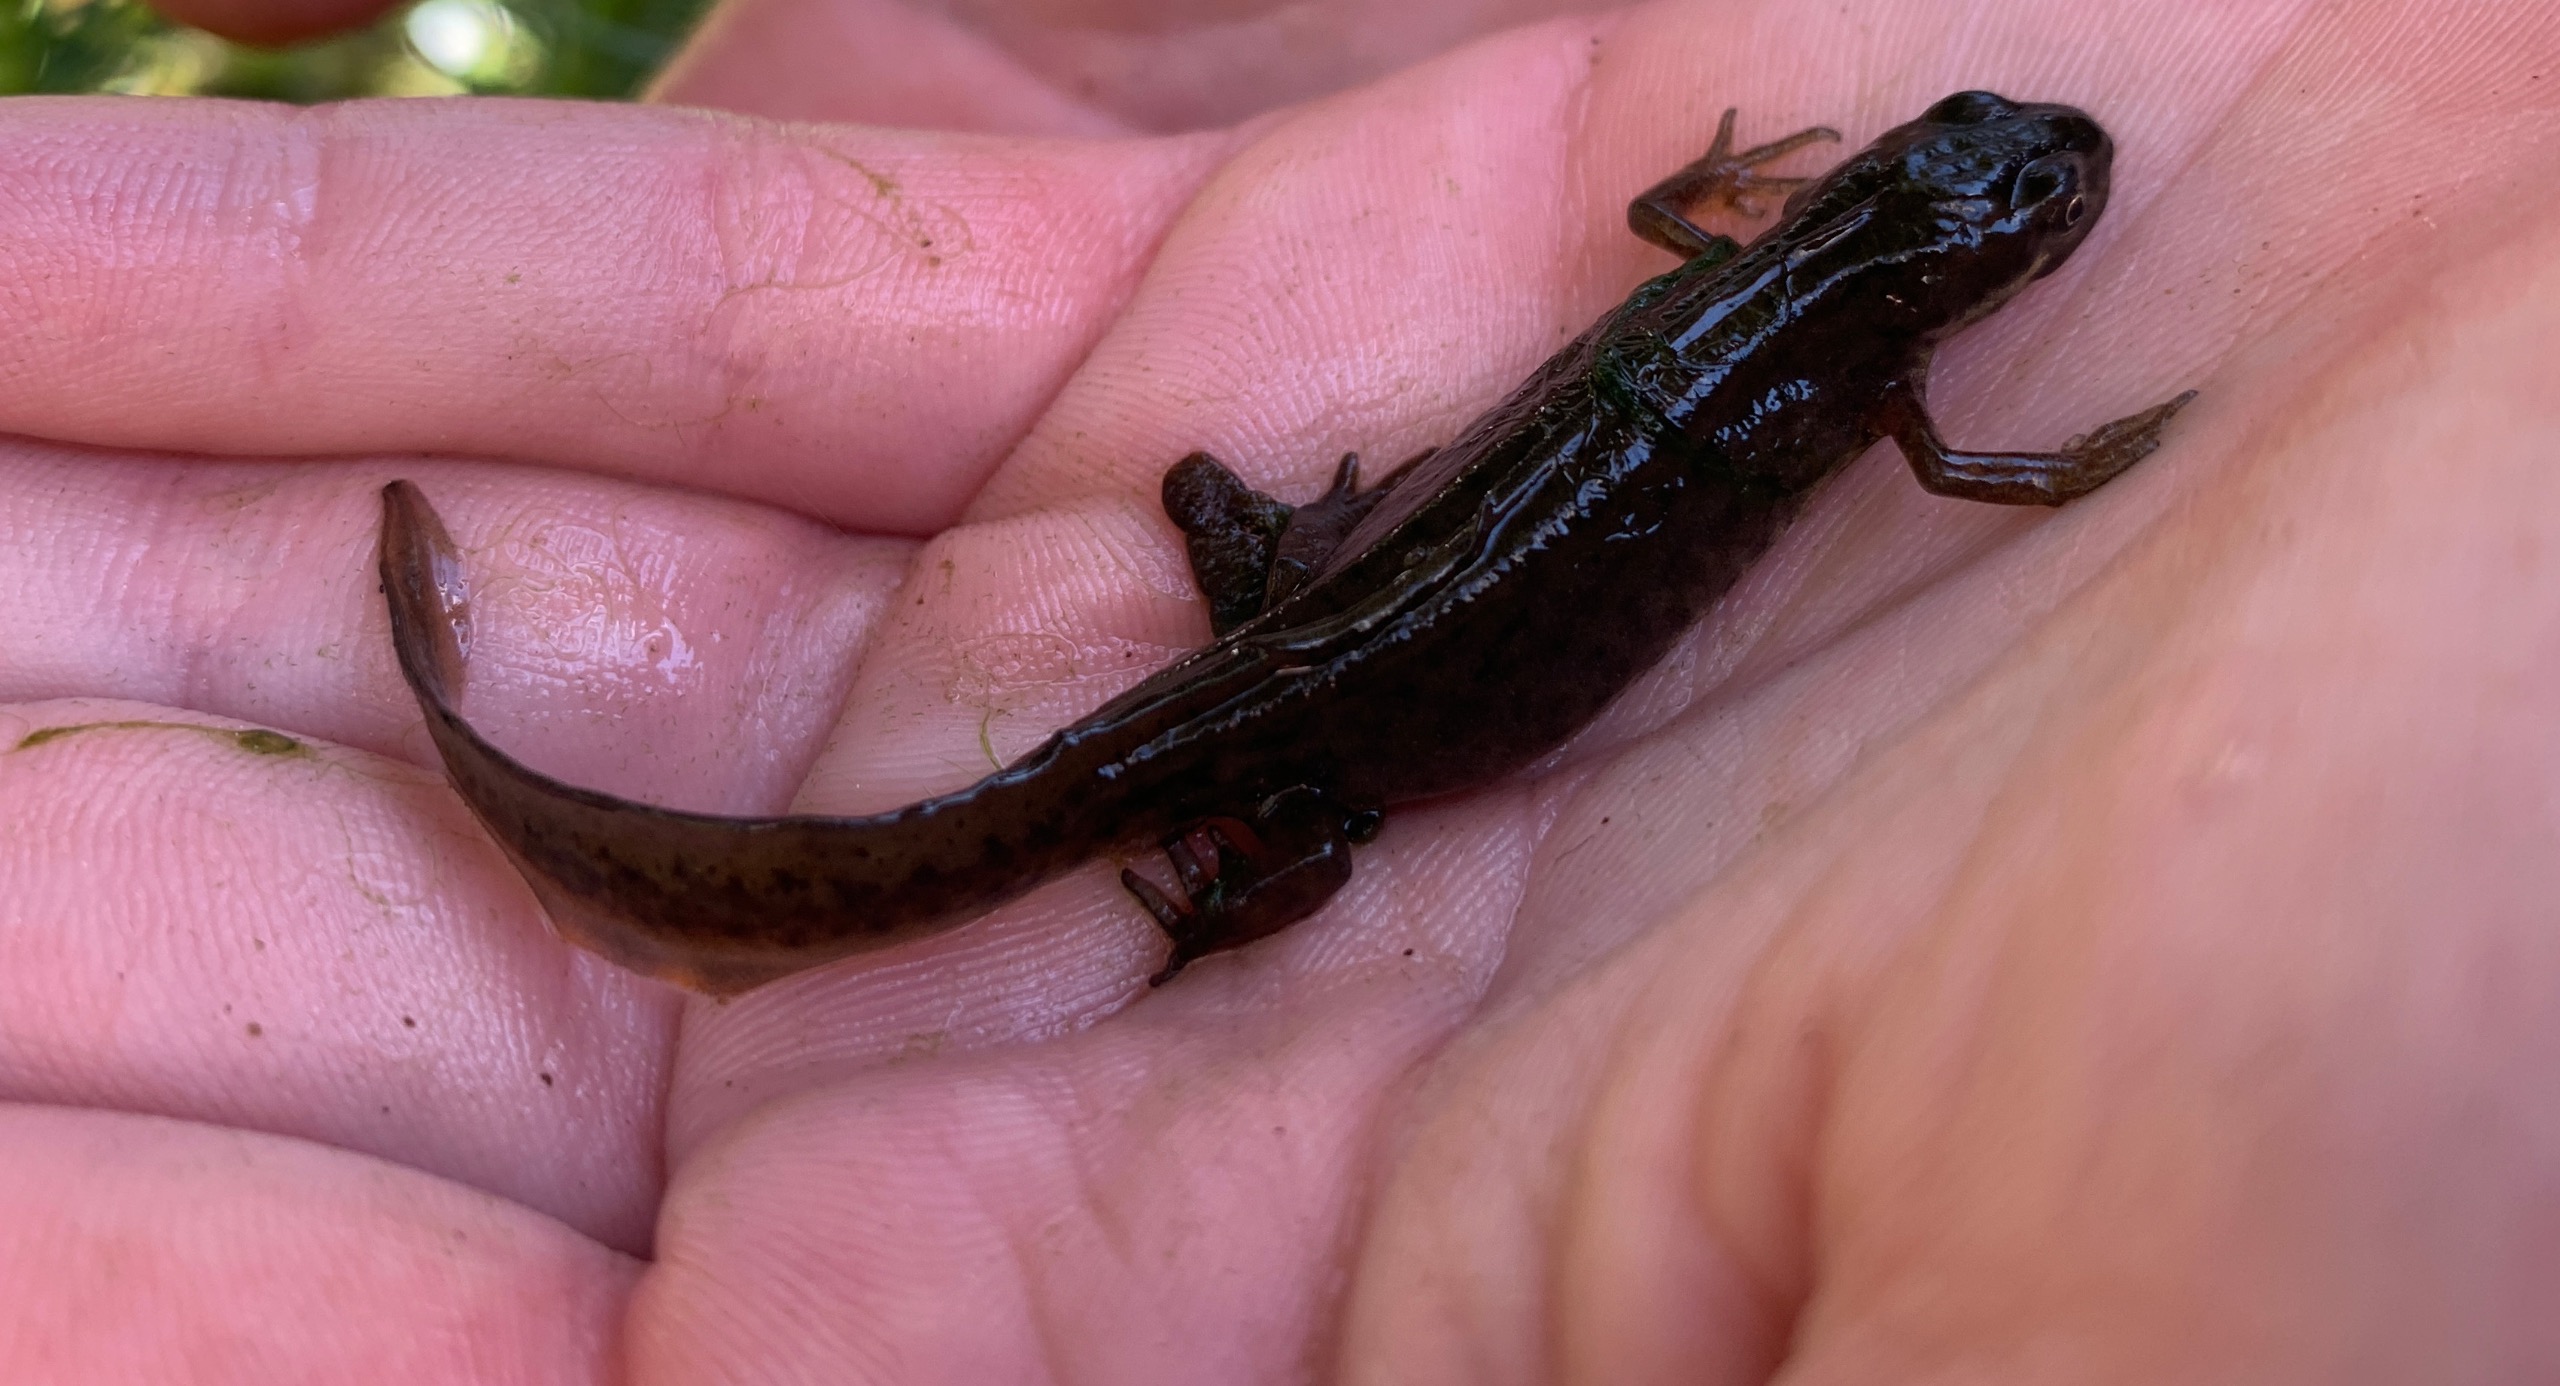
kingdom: Animalia
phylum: Chordata
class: Amphibia
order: Caudata
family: Salamandridae
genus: Lissotriton
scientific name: Lissotriton vulgaris
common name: Lille vandsalamander
